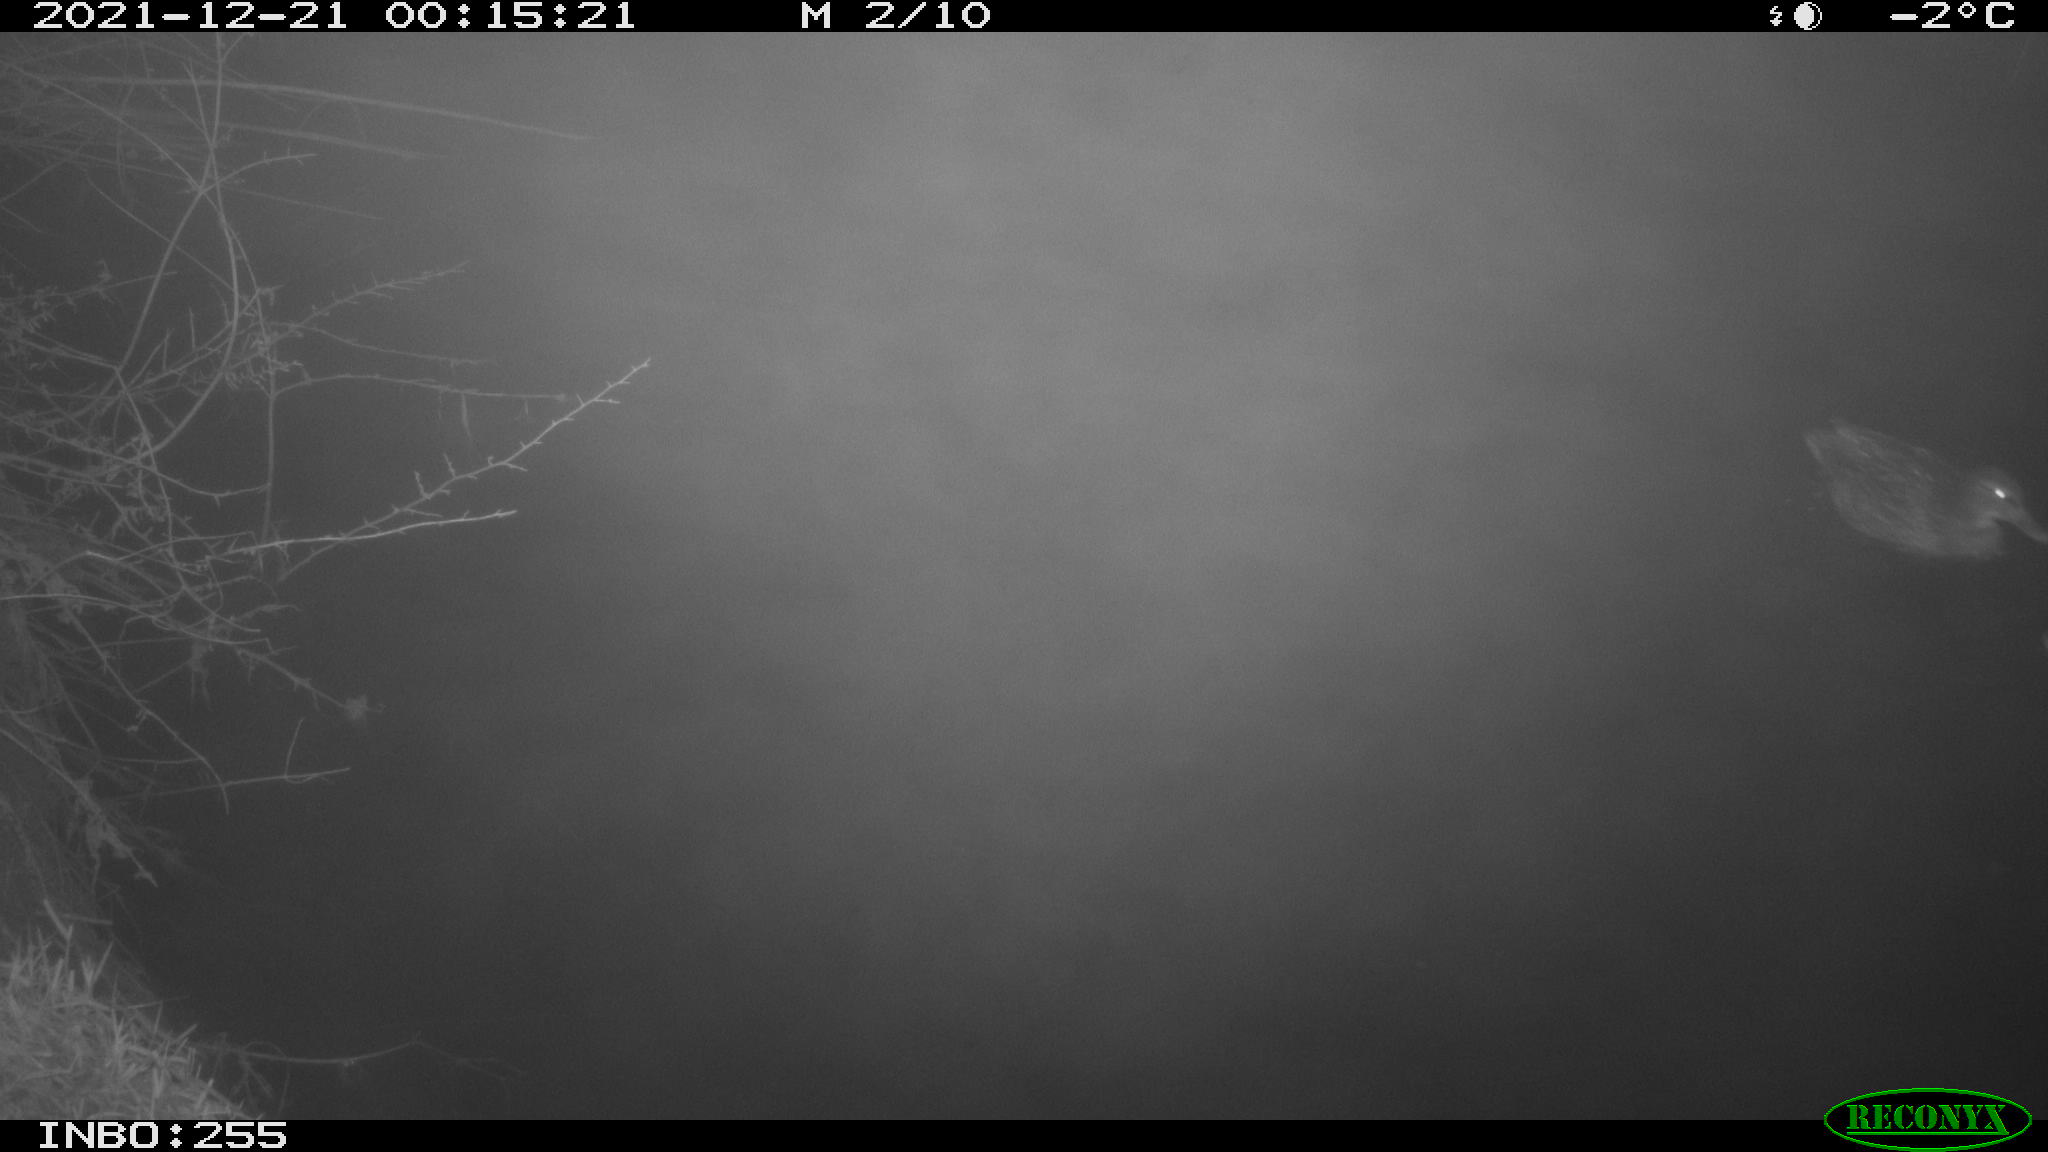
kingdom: Animalia
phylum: Chordata
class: Aves
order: Anseriformes
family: Anatidae
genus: Anas
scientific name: Anas
